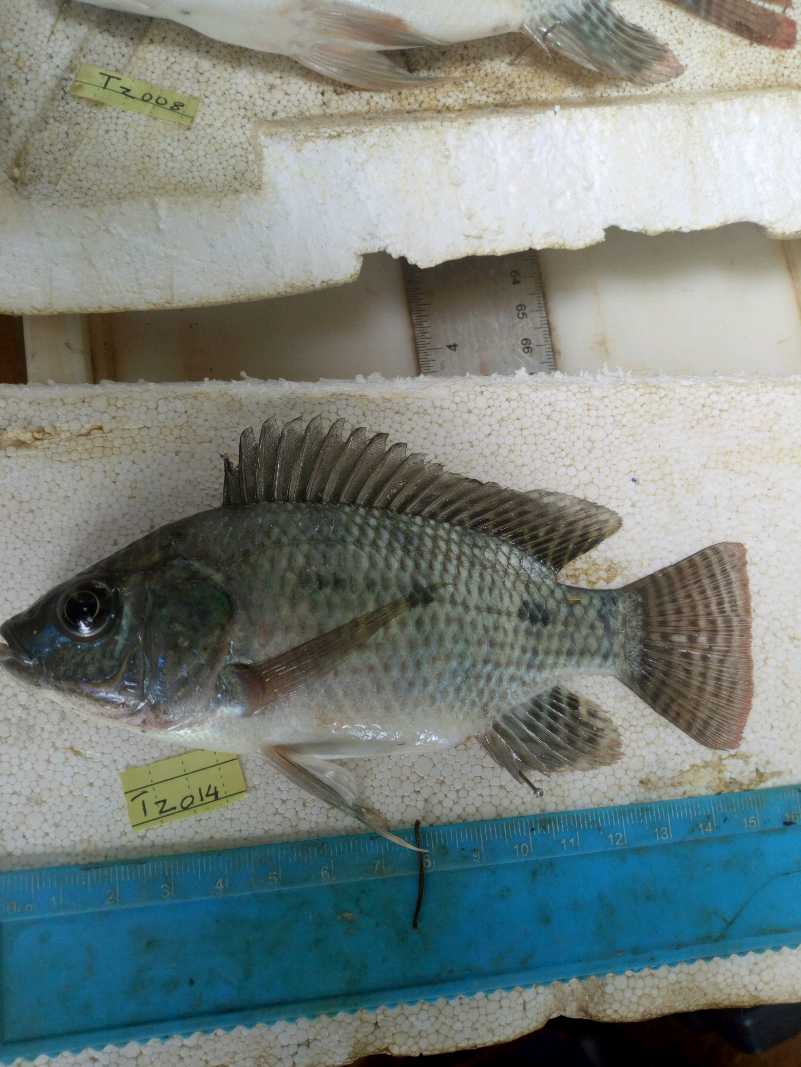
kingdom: Animalia
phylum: Chordata
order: Perciformes
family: Cichlidae
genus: Oreochromis
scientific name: Oreochromis niloticus
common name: Nile tilapia
